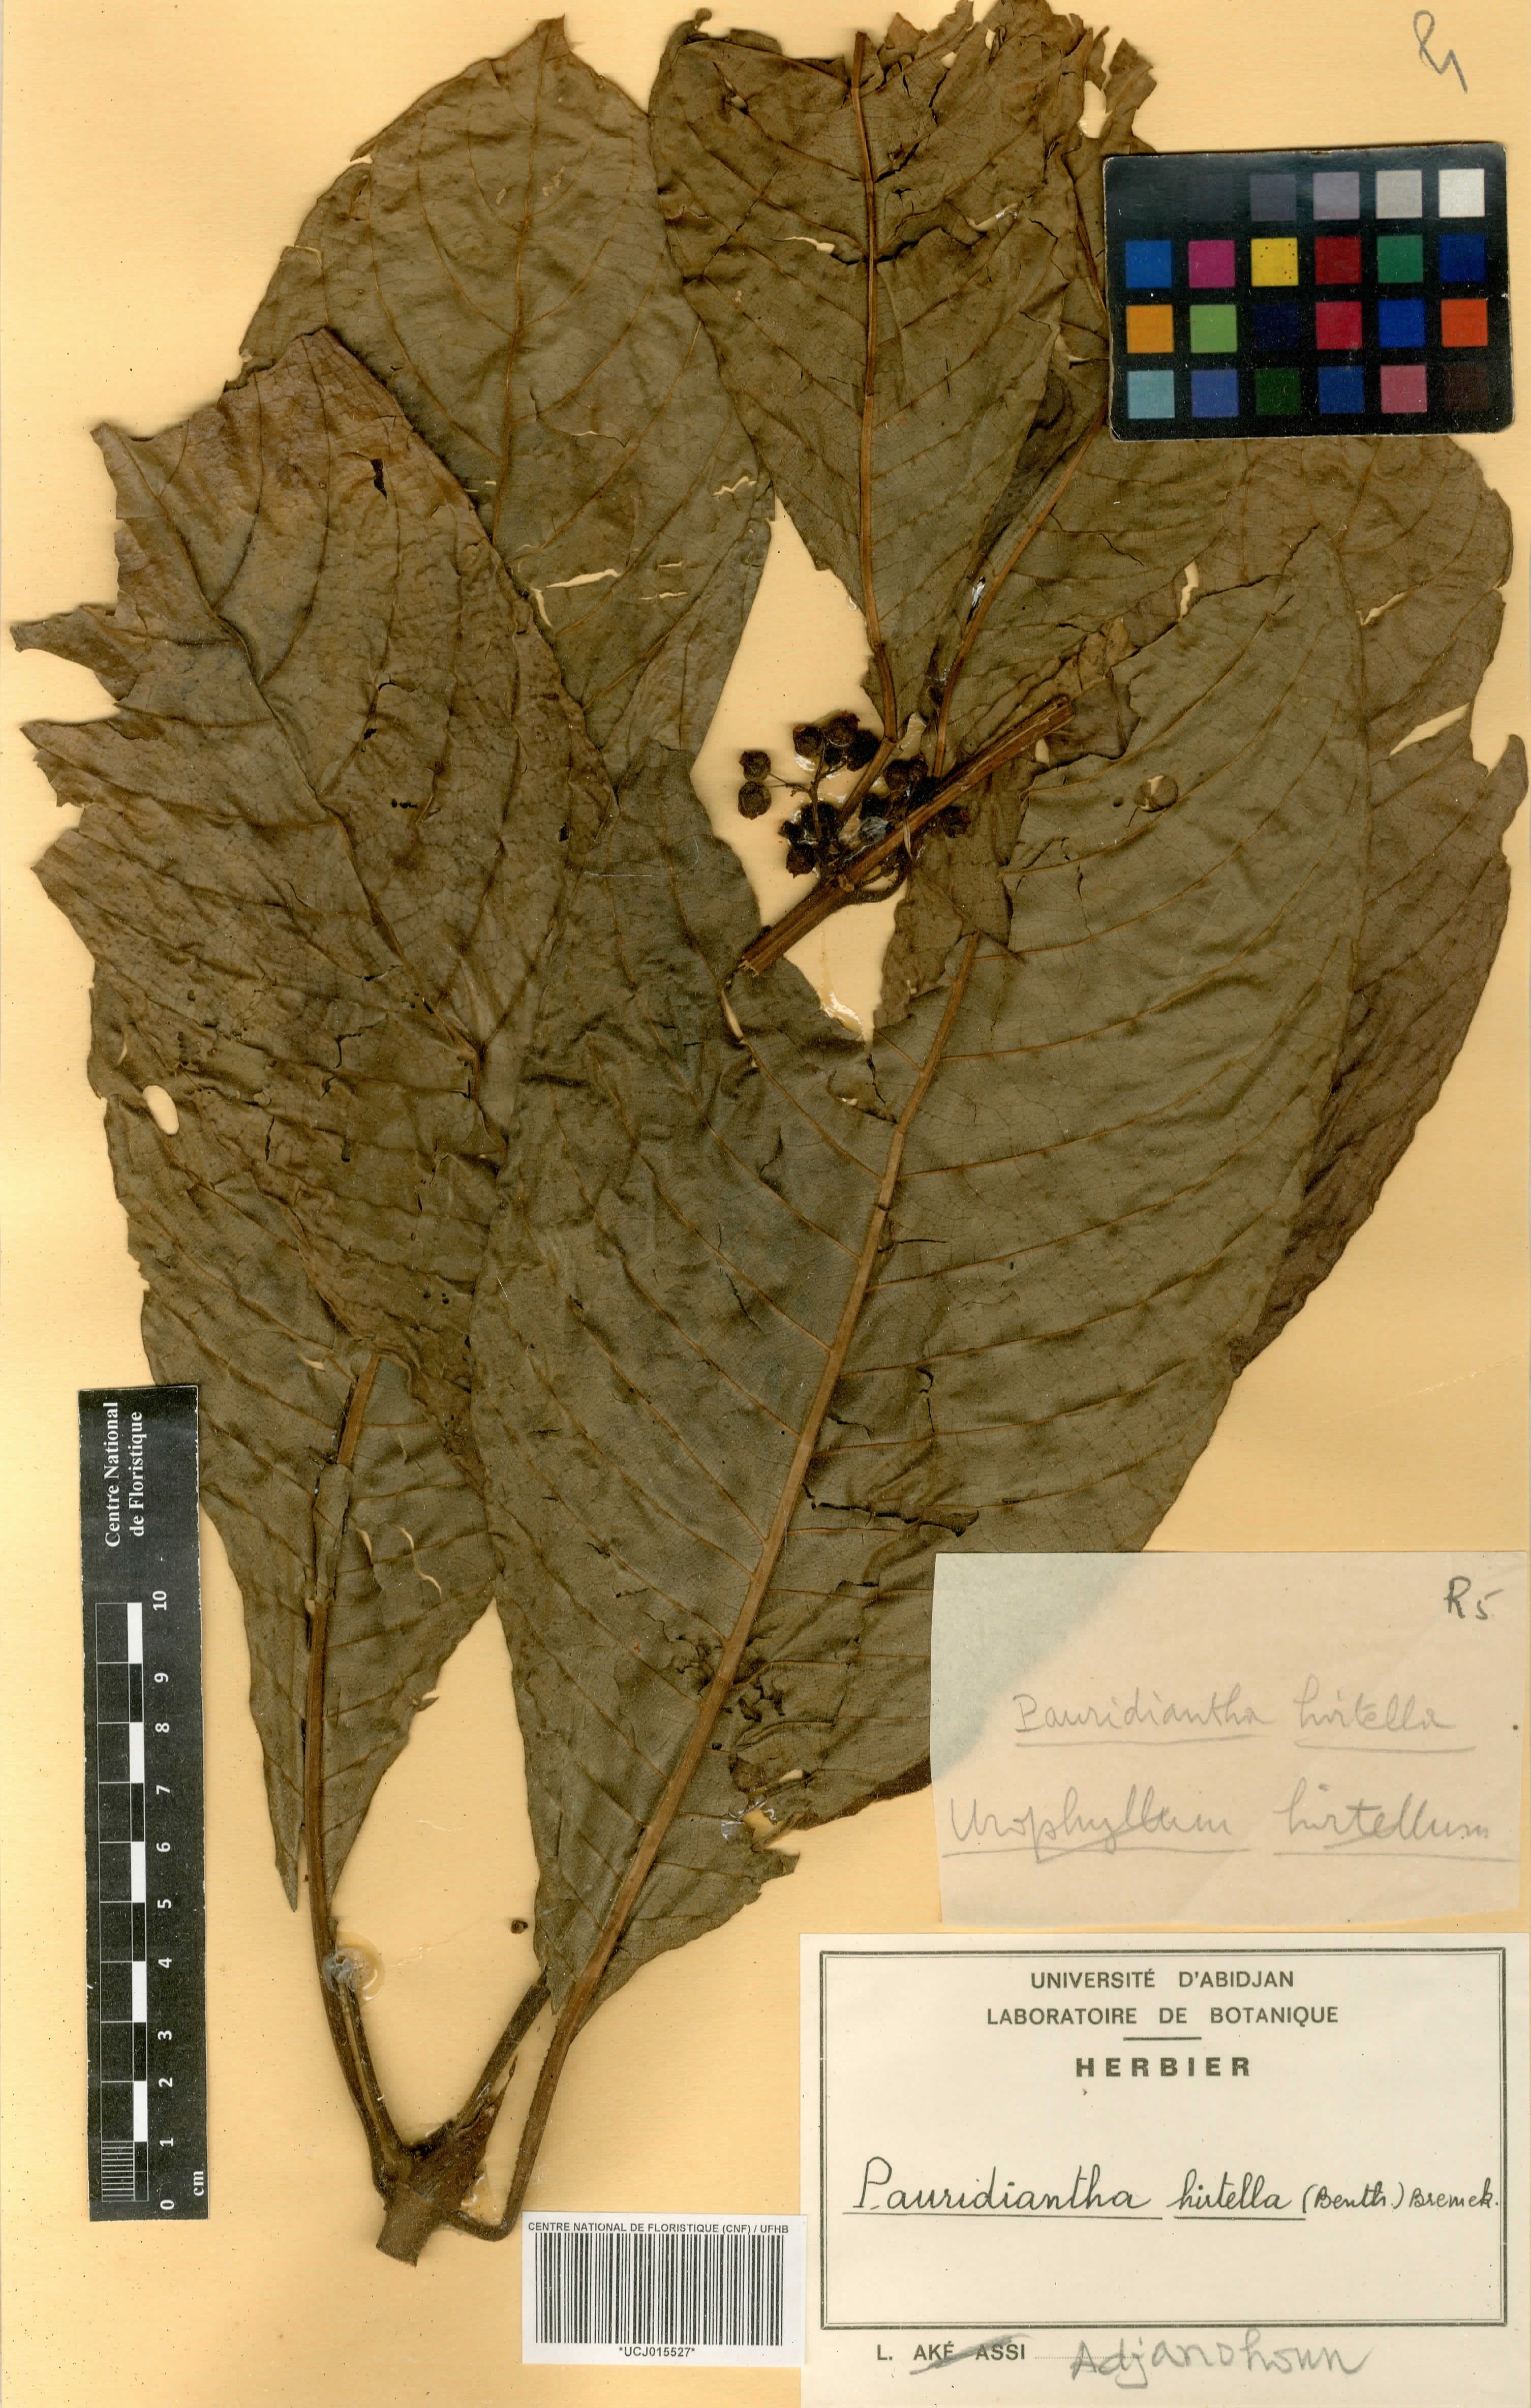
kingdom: Plantae
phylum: Tracheophyta
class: Magnoliopsida
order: Gentianales
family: Rubiaceae
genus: Pauridiantha
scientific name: Pauridiantha hirtella
